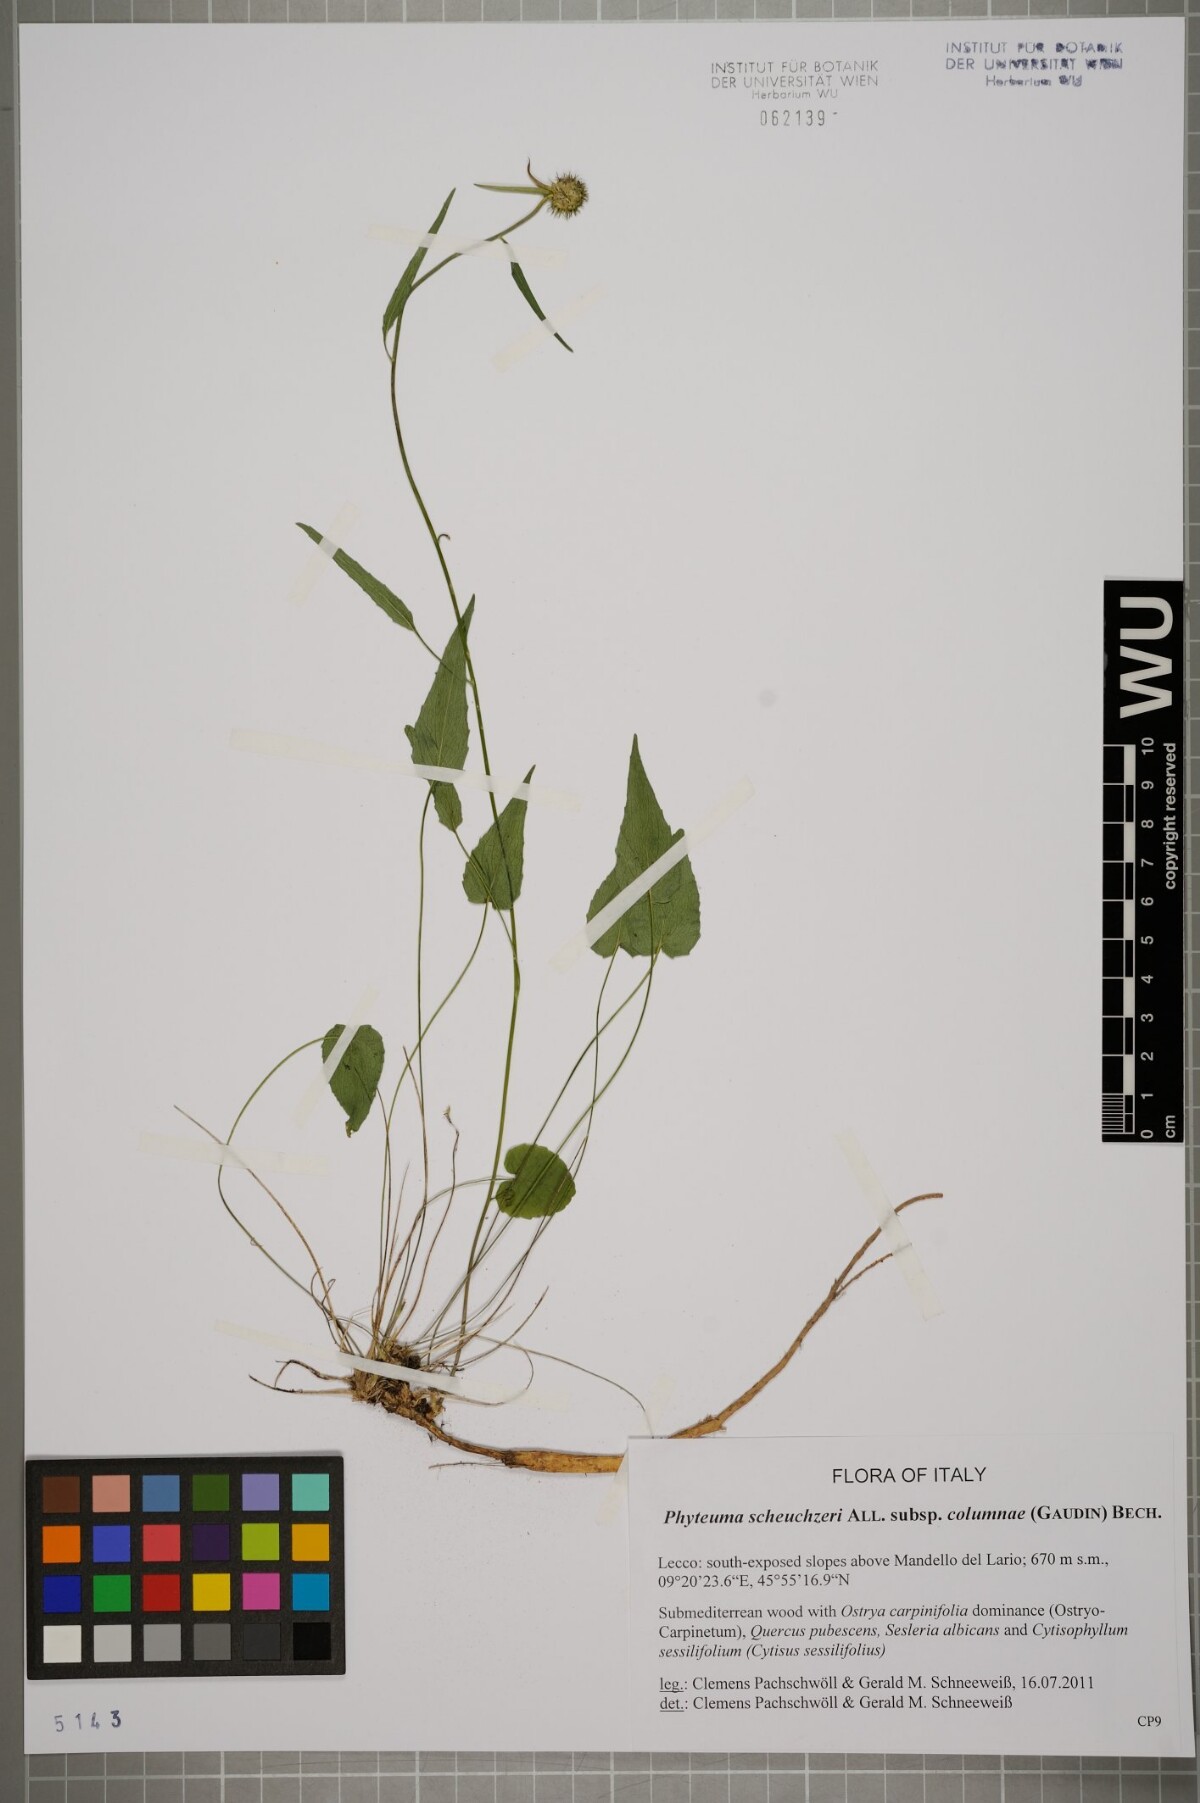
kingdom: Plantae
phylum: Tracheophyta
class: Magnoliopsida
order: Asterales
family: Campanulaceae
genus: Phyteuma
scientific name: Phyteuma scheuchzeri
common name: Oxford rampion
